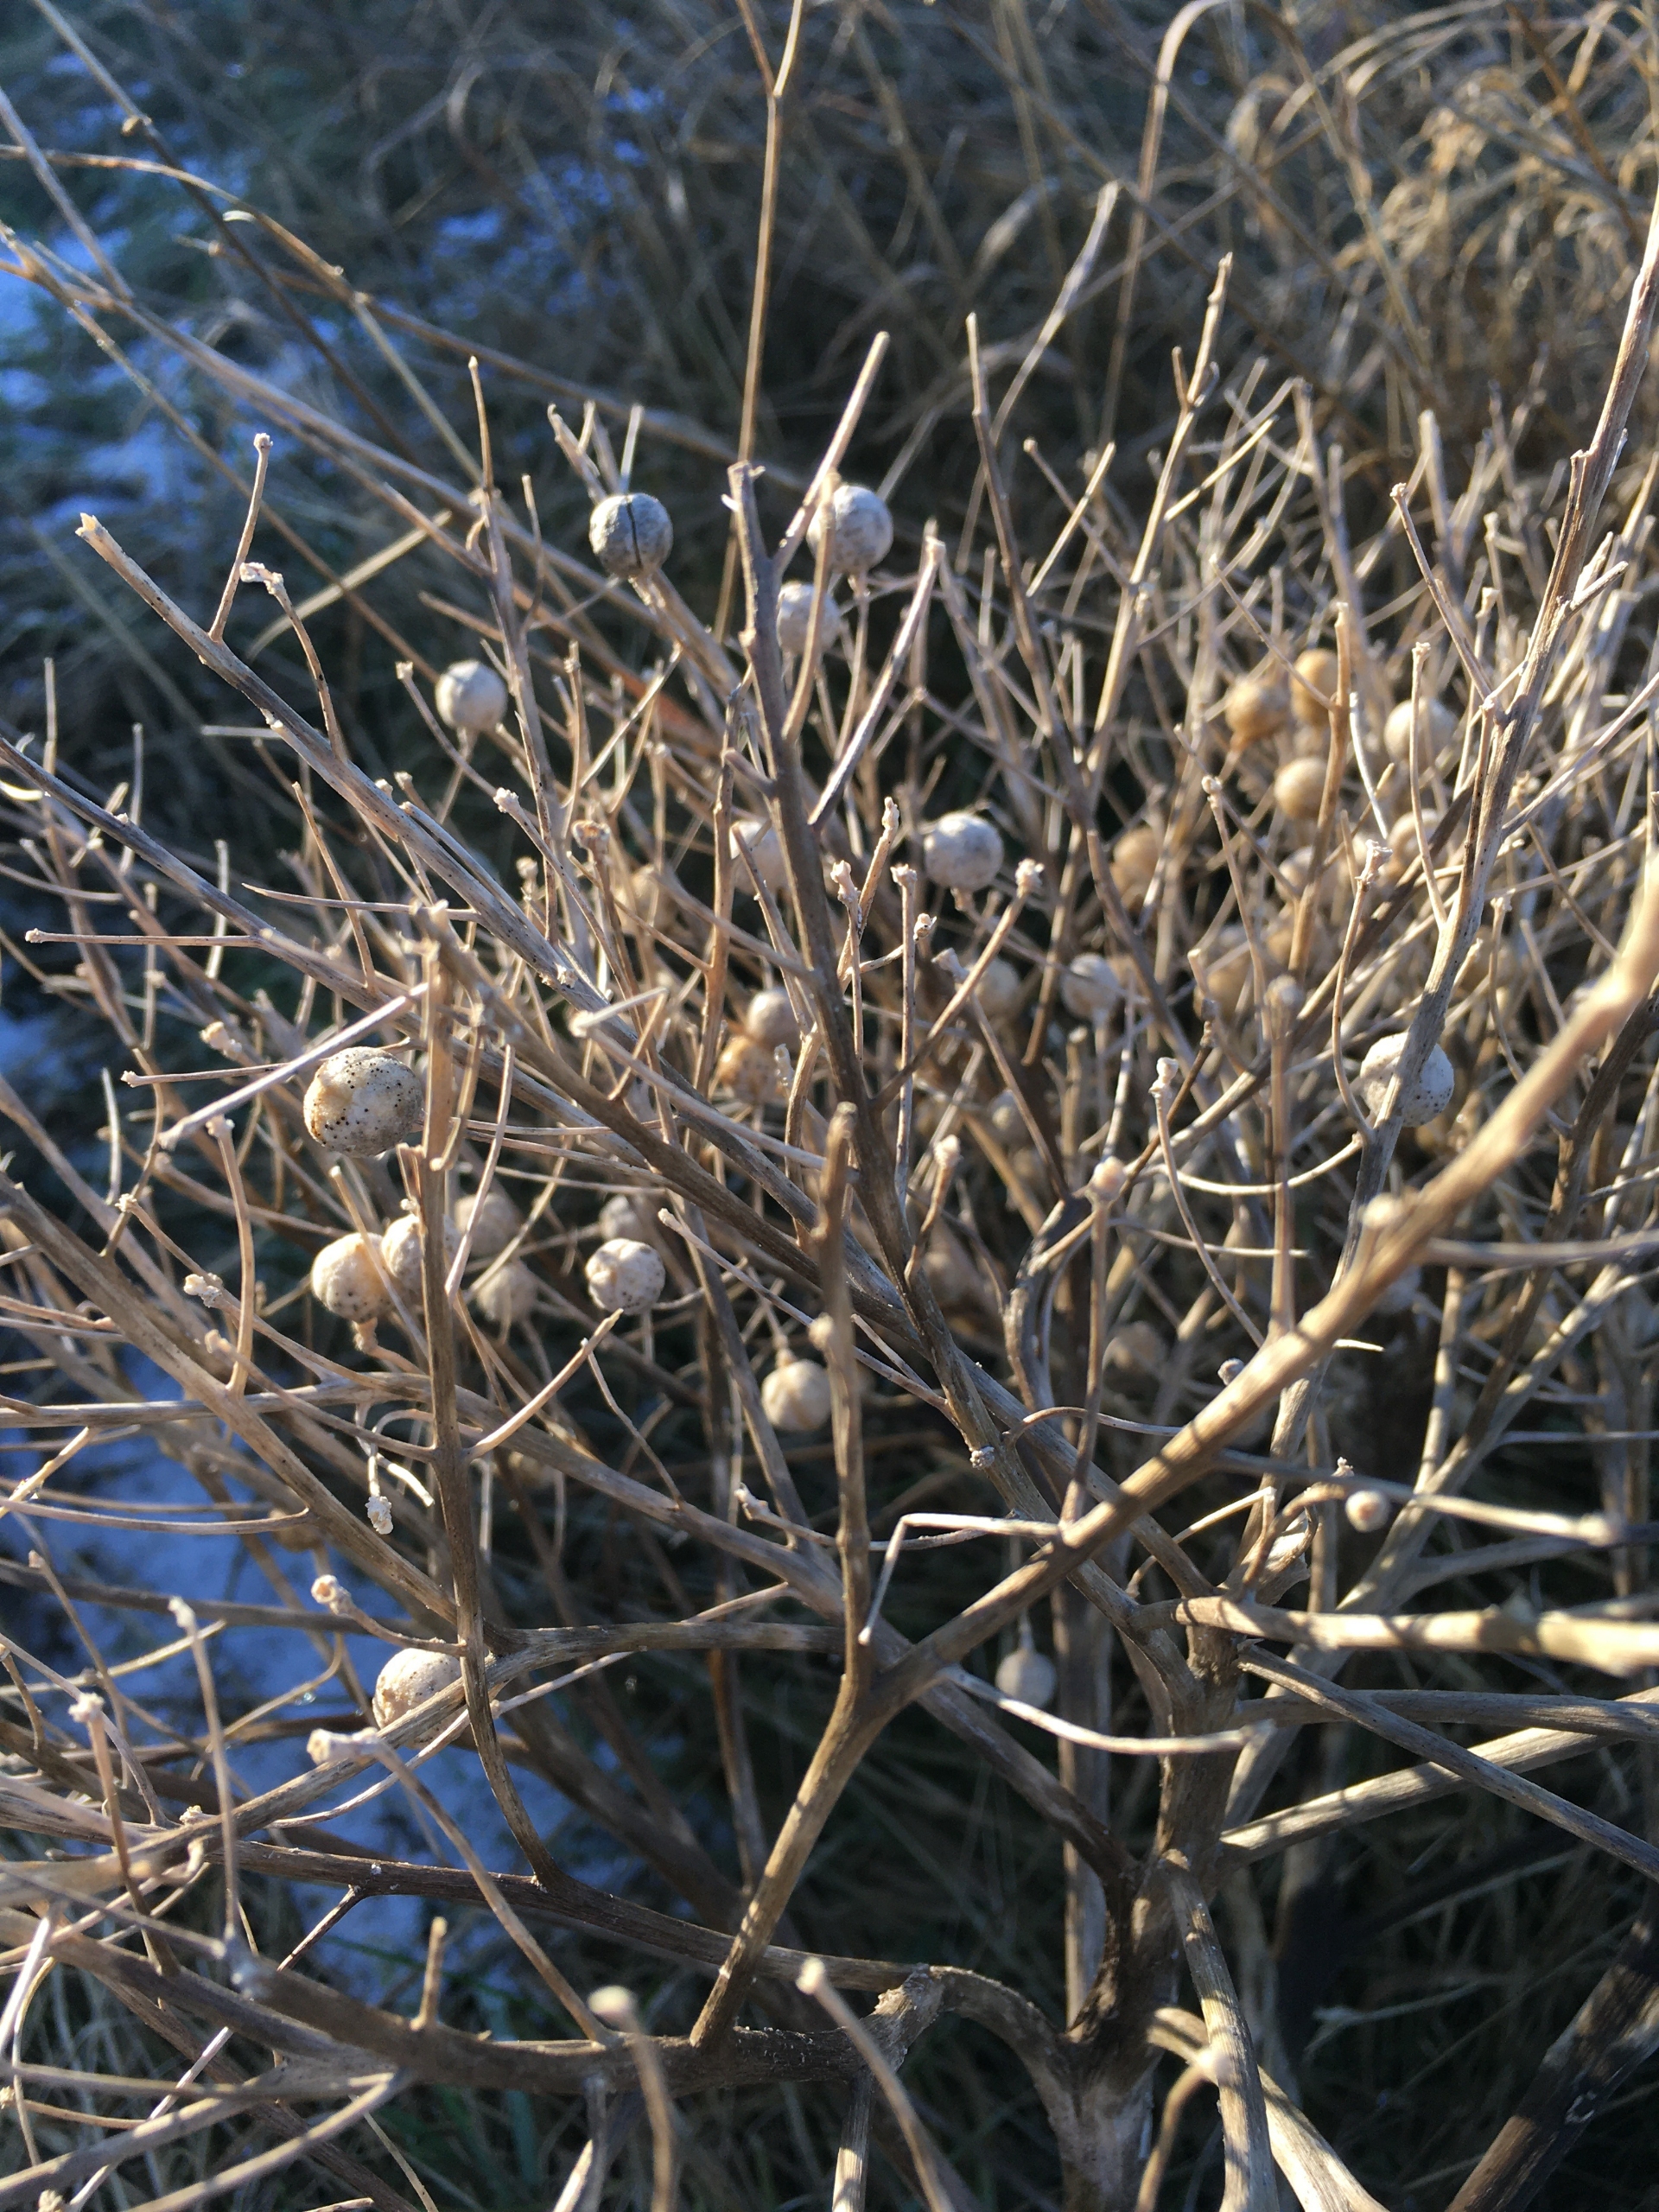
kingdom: Plantae
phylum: Tracheophyta
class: Magnoliopsida
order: Brassicales
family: Brassicaceae
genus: Crambe
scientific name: Crambe maritima
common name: Strandkål
